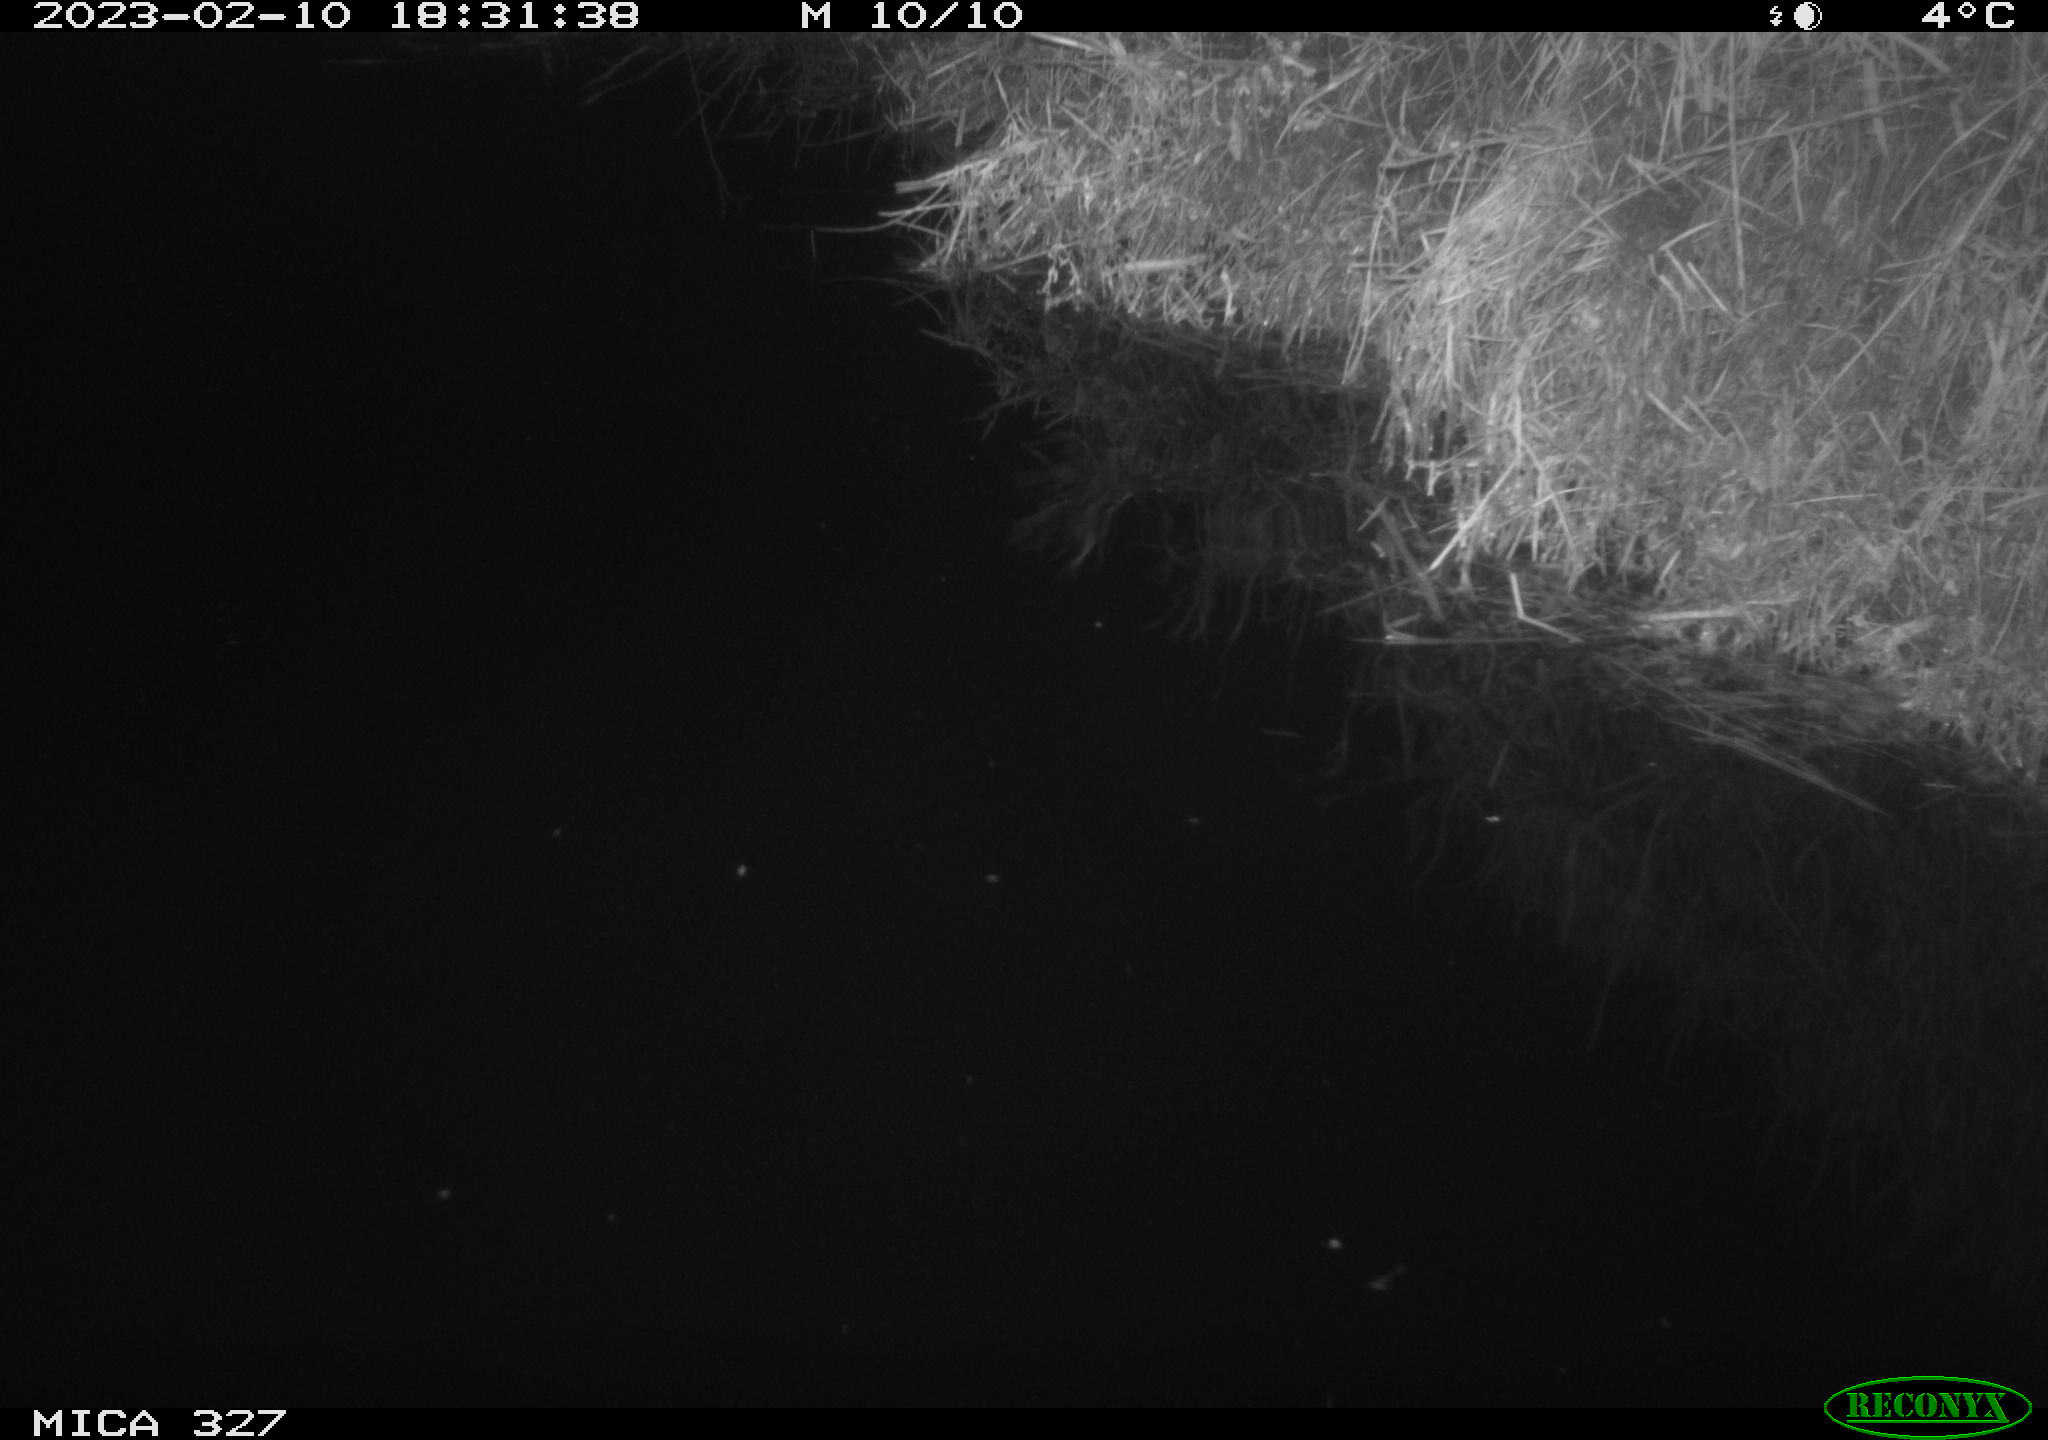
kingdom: Animalia
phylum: Chordata
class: Mammalia
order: Rodentia
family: Cricetidae
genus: Ondatra
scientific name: Ondatra zibethicus
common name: Muskrat
